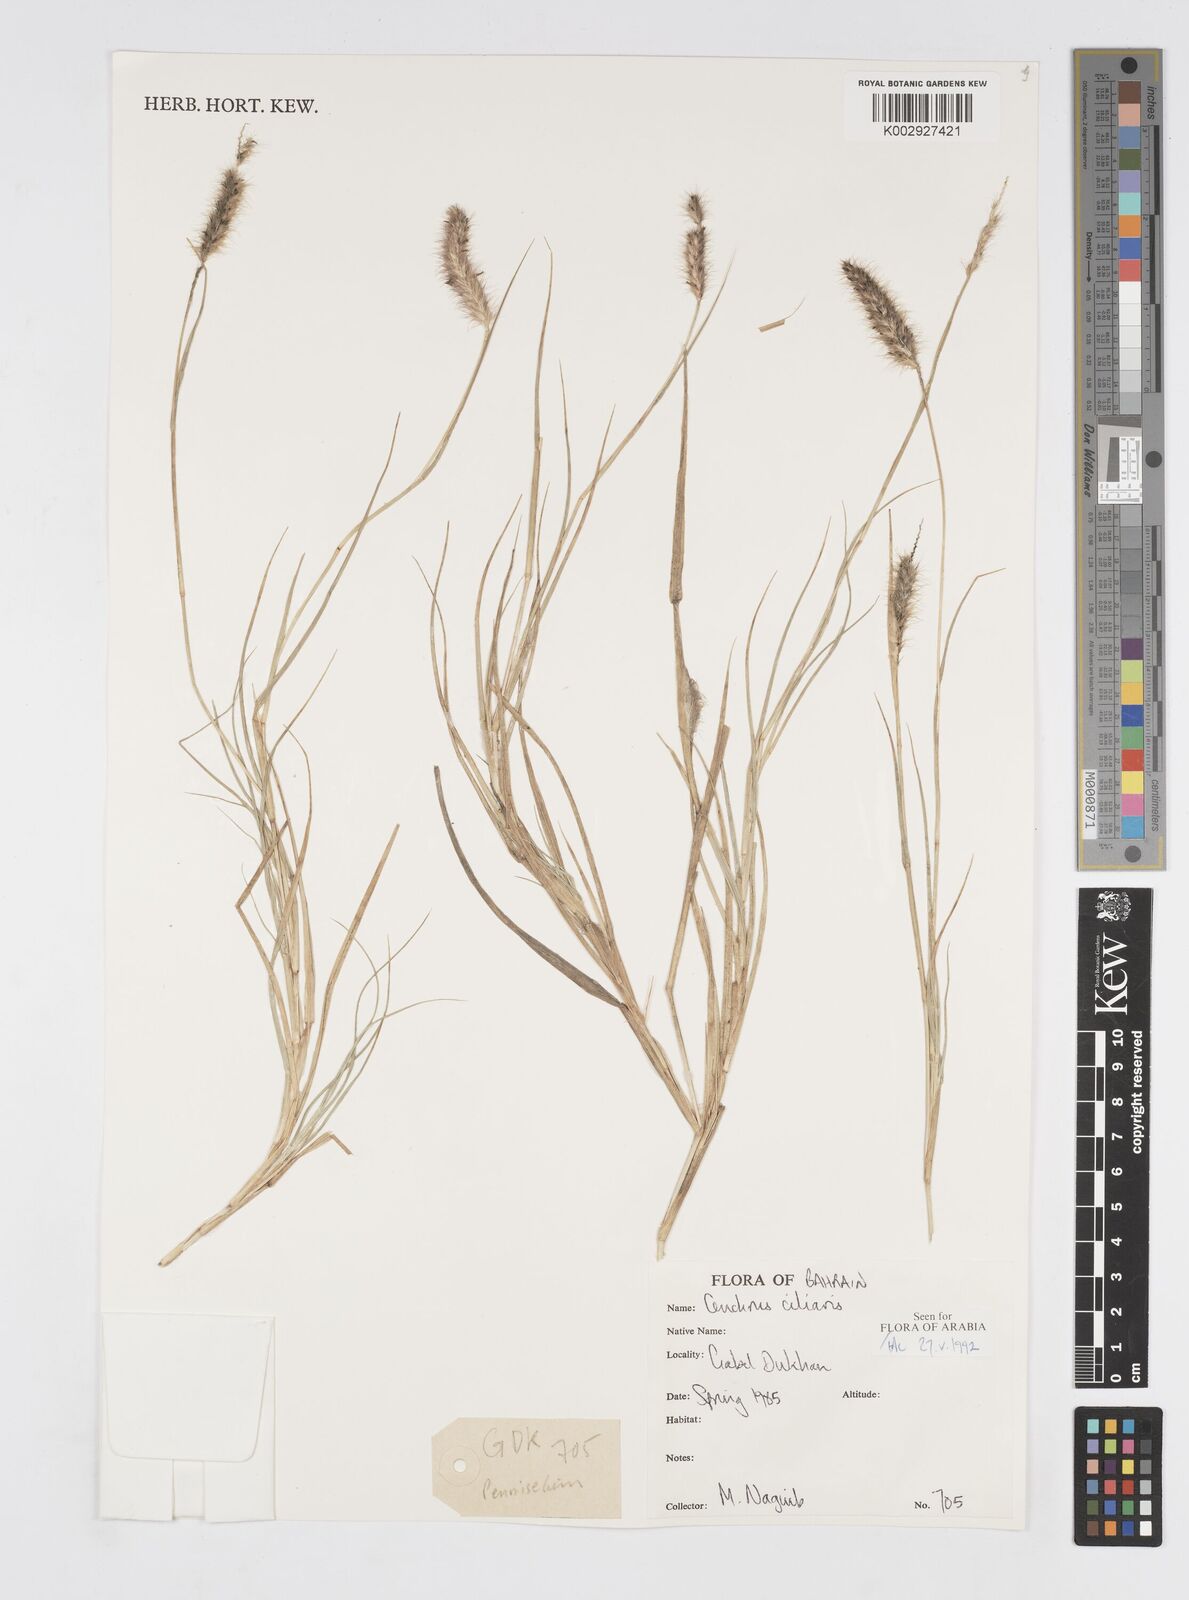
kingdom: Plantae
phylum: Tracheophyta
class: Liliopsida
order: Poales
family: Poaceae
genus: Cenchrus
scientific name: Cenchrus
